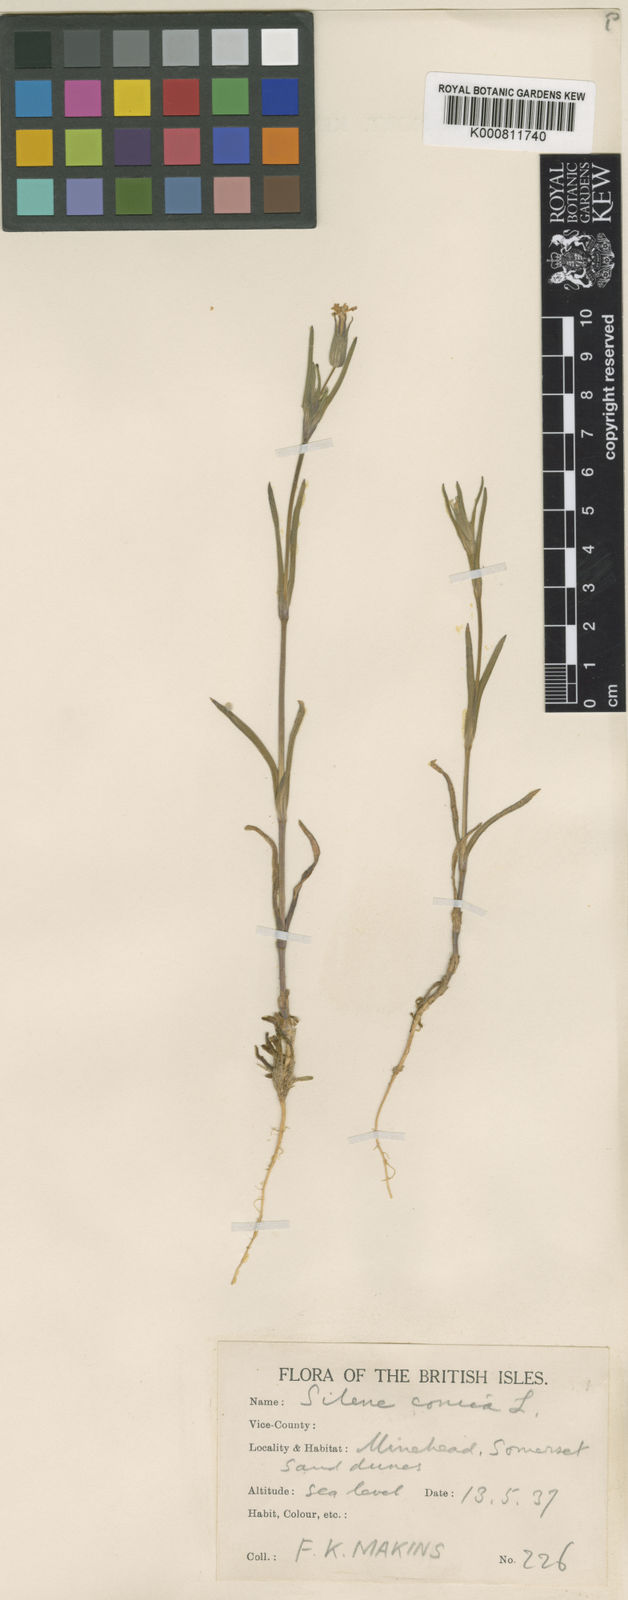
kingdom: Plantae
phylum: Tracheophyta
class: Magnoliopsida
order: Caryophyllales
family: Caryophyllaceae
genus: Silene
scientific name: Silene conica
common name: Sand catchfly
